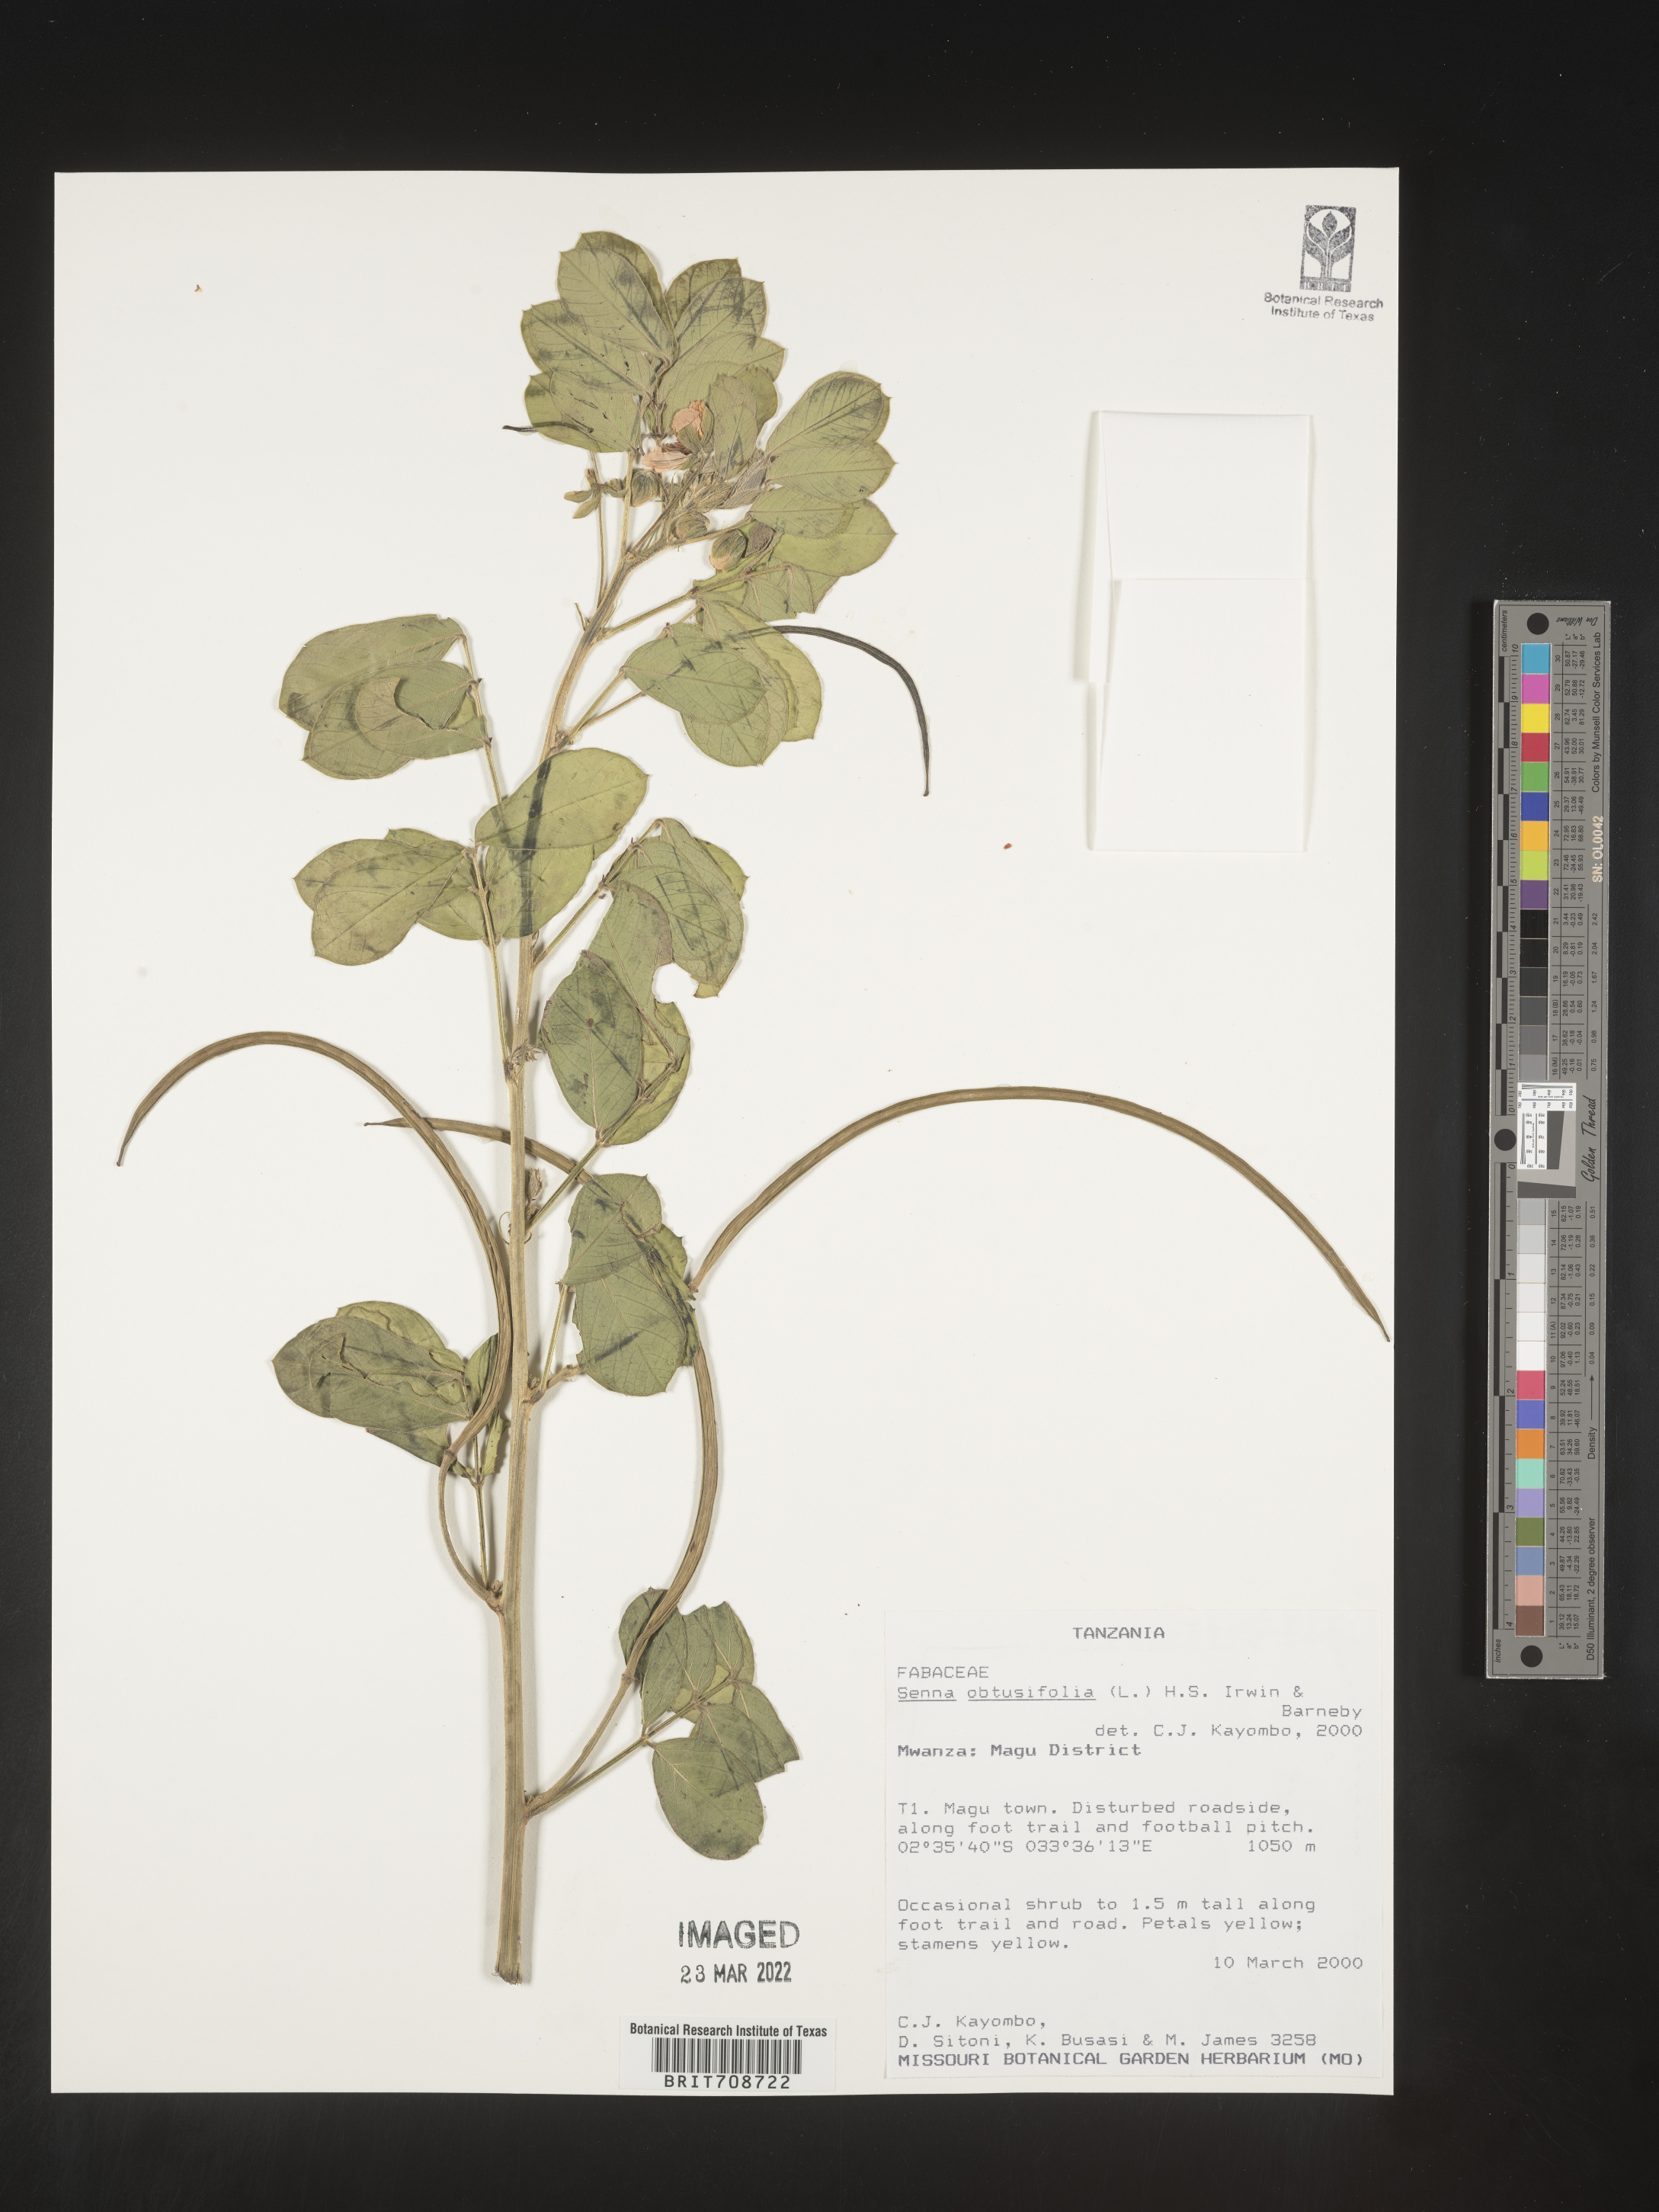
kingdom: Plantae
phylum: Tracheophyta
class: Magnoliopsida
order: Fabales
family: Fabaceae
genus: Senna
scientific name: Senna
